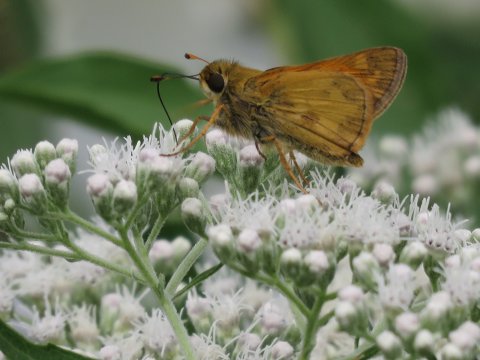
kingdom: Animalia
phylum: Arthropoda
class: Insecta
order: Lepidoptera
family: Hesperiidae
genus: Atalopedes
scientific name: Atalopedes campestris
